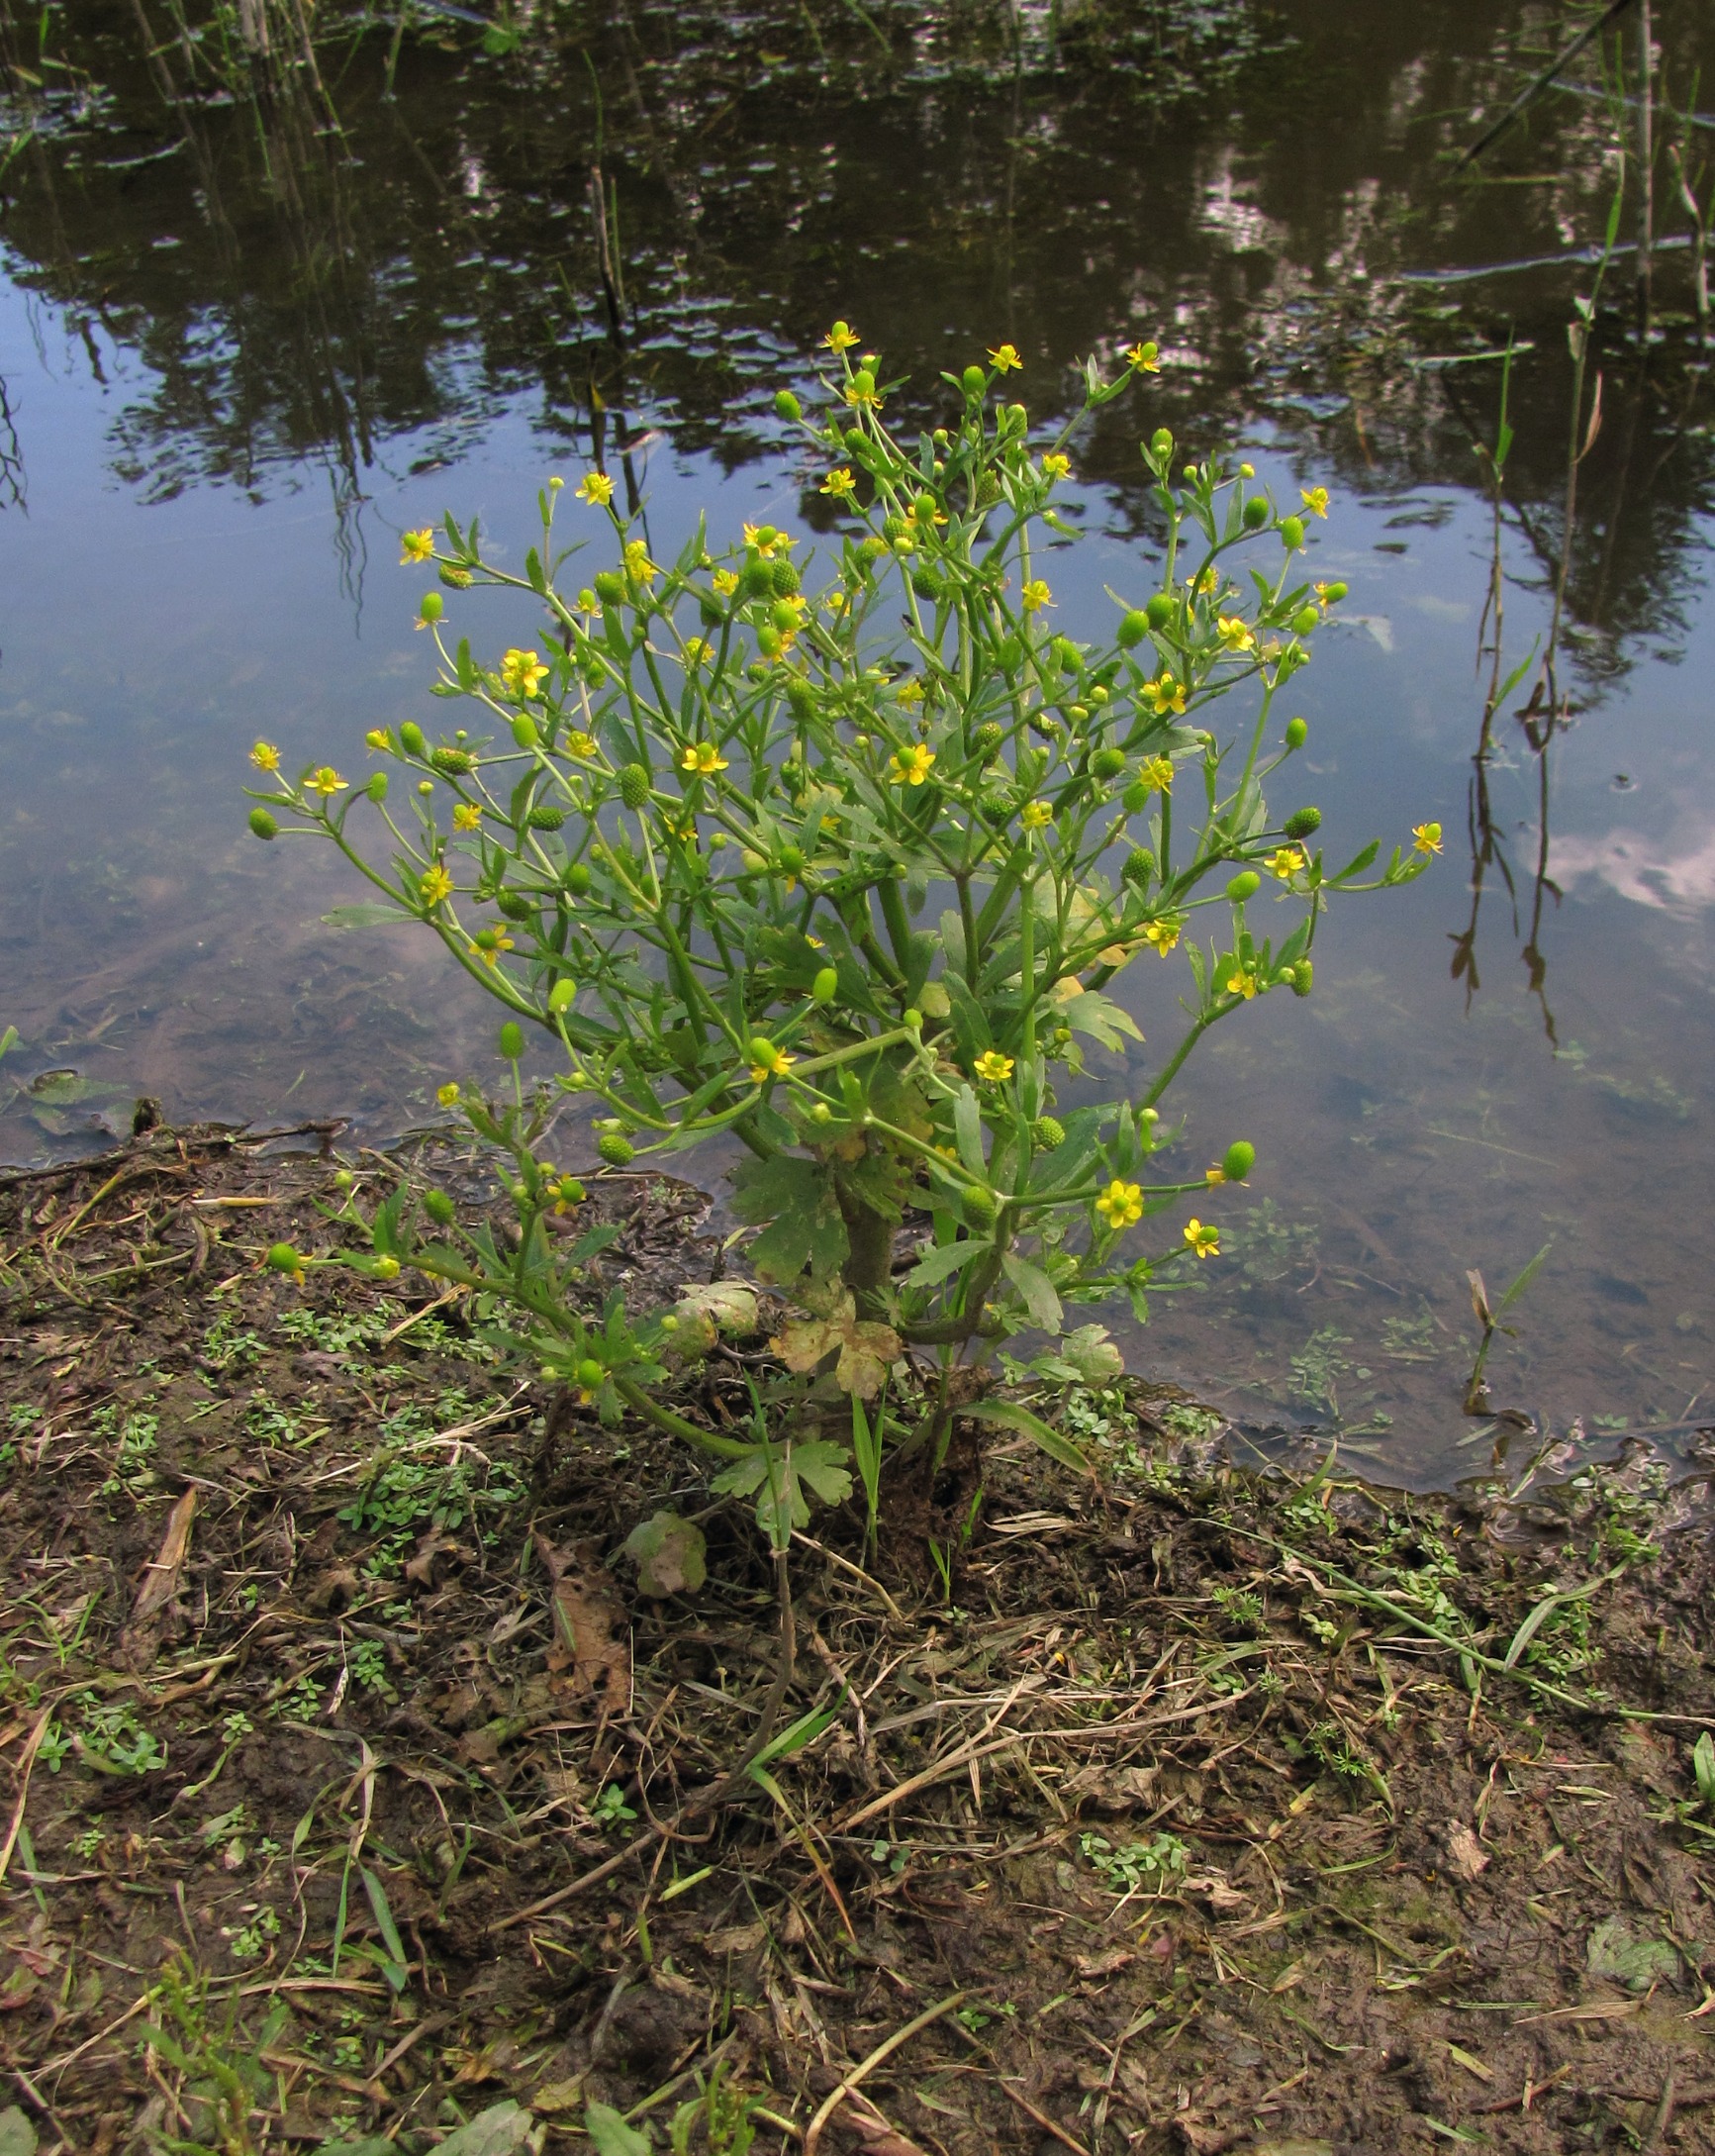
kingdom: Plantae
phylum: Tracheophyta
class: Magnoliopsida
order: Ranunculales
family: Ranunculaceae
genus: Ranunculus
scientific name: Ranunculus sceleratus
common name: Tigger-ranunkel
